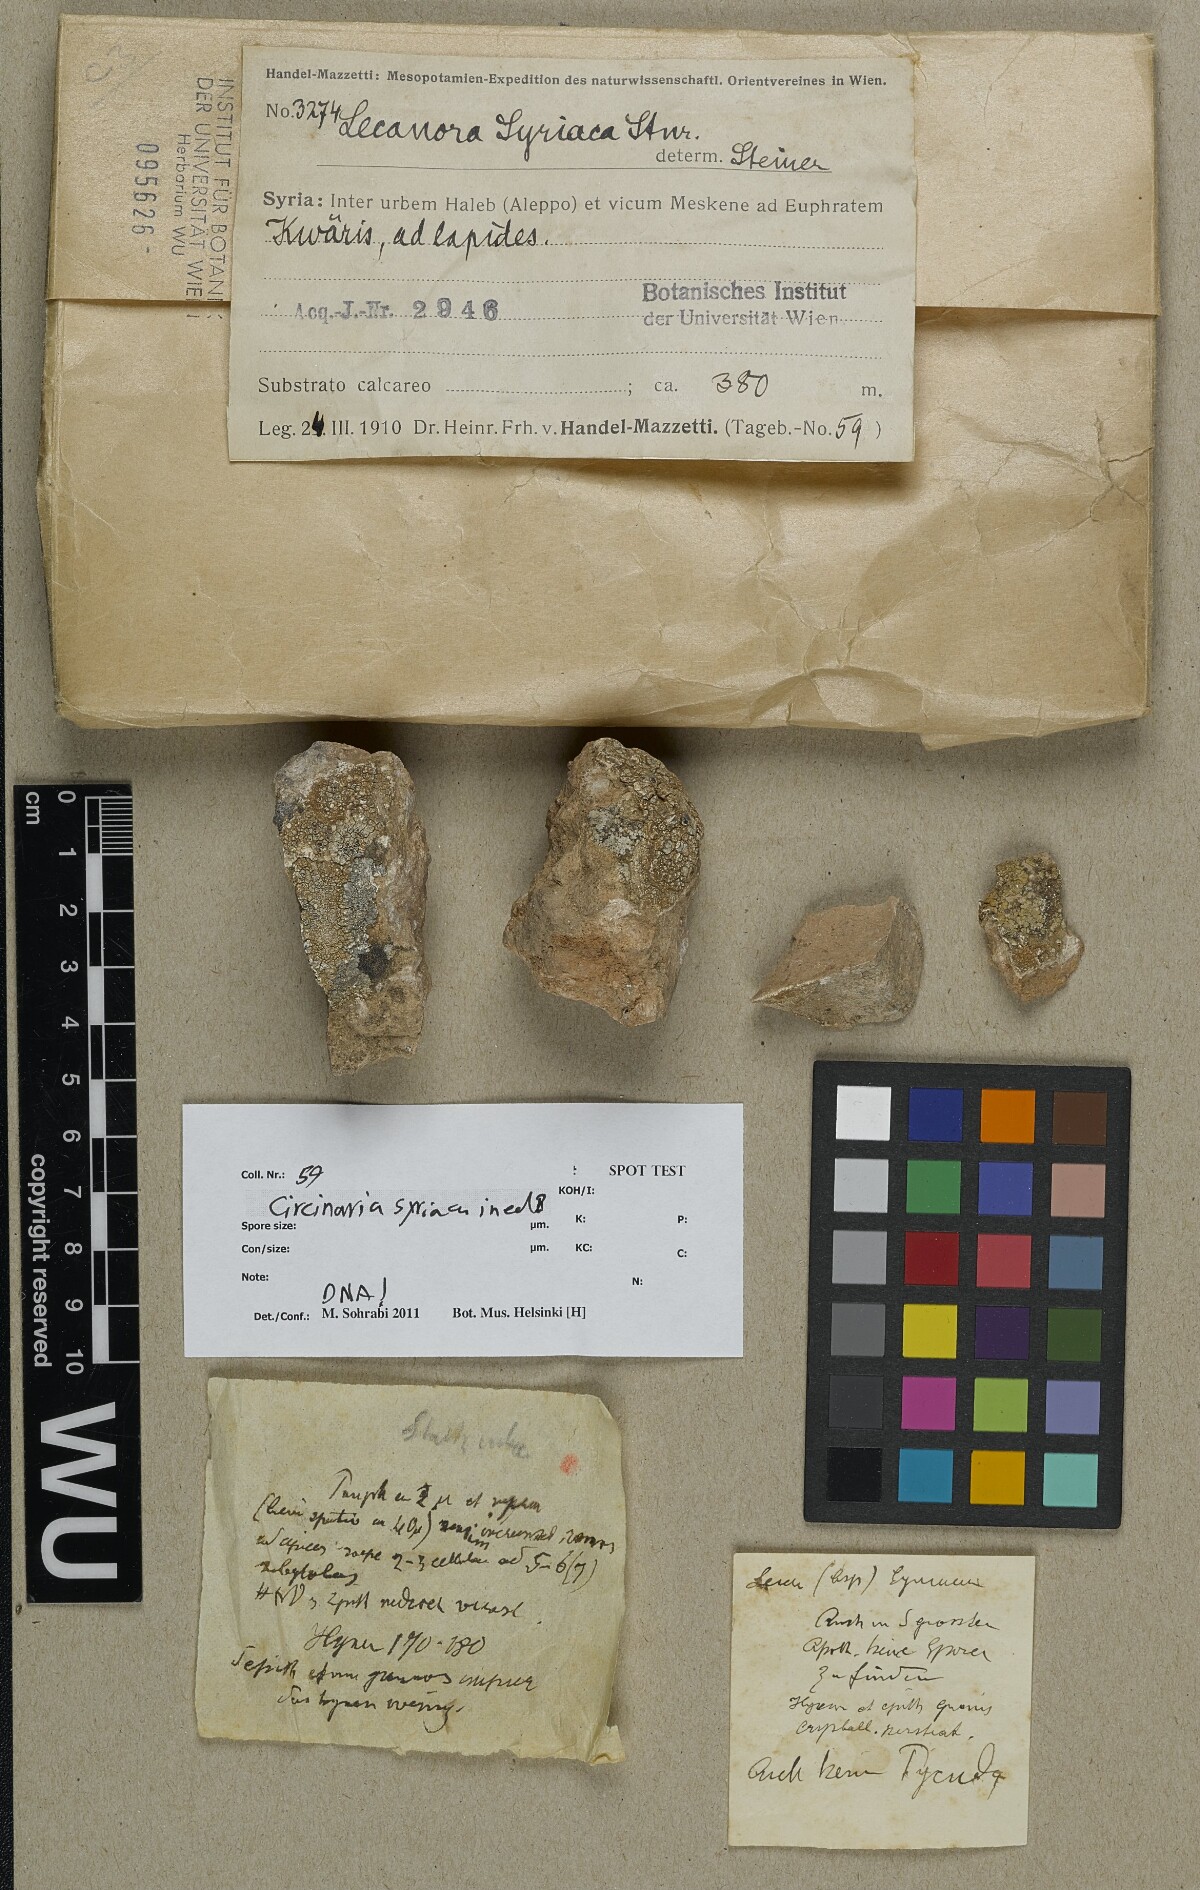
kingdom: Fungi
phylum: Ascomycota
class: Lecanoromycetes
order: Lecanorales
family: Lecanoraceae
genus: Lecanora
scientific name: Lecanora
